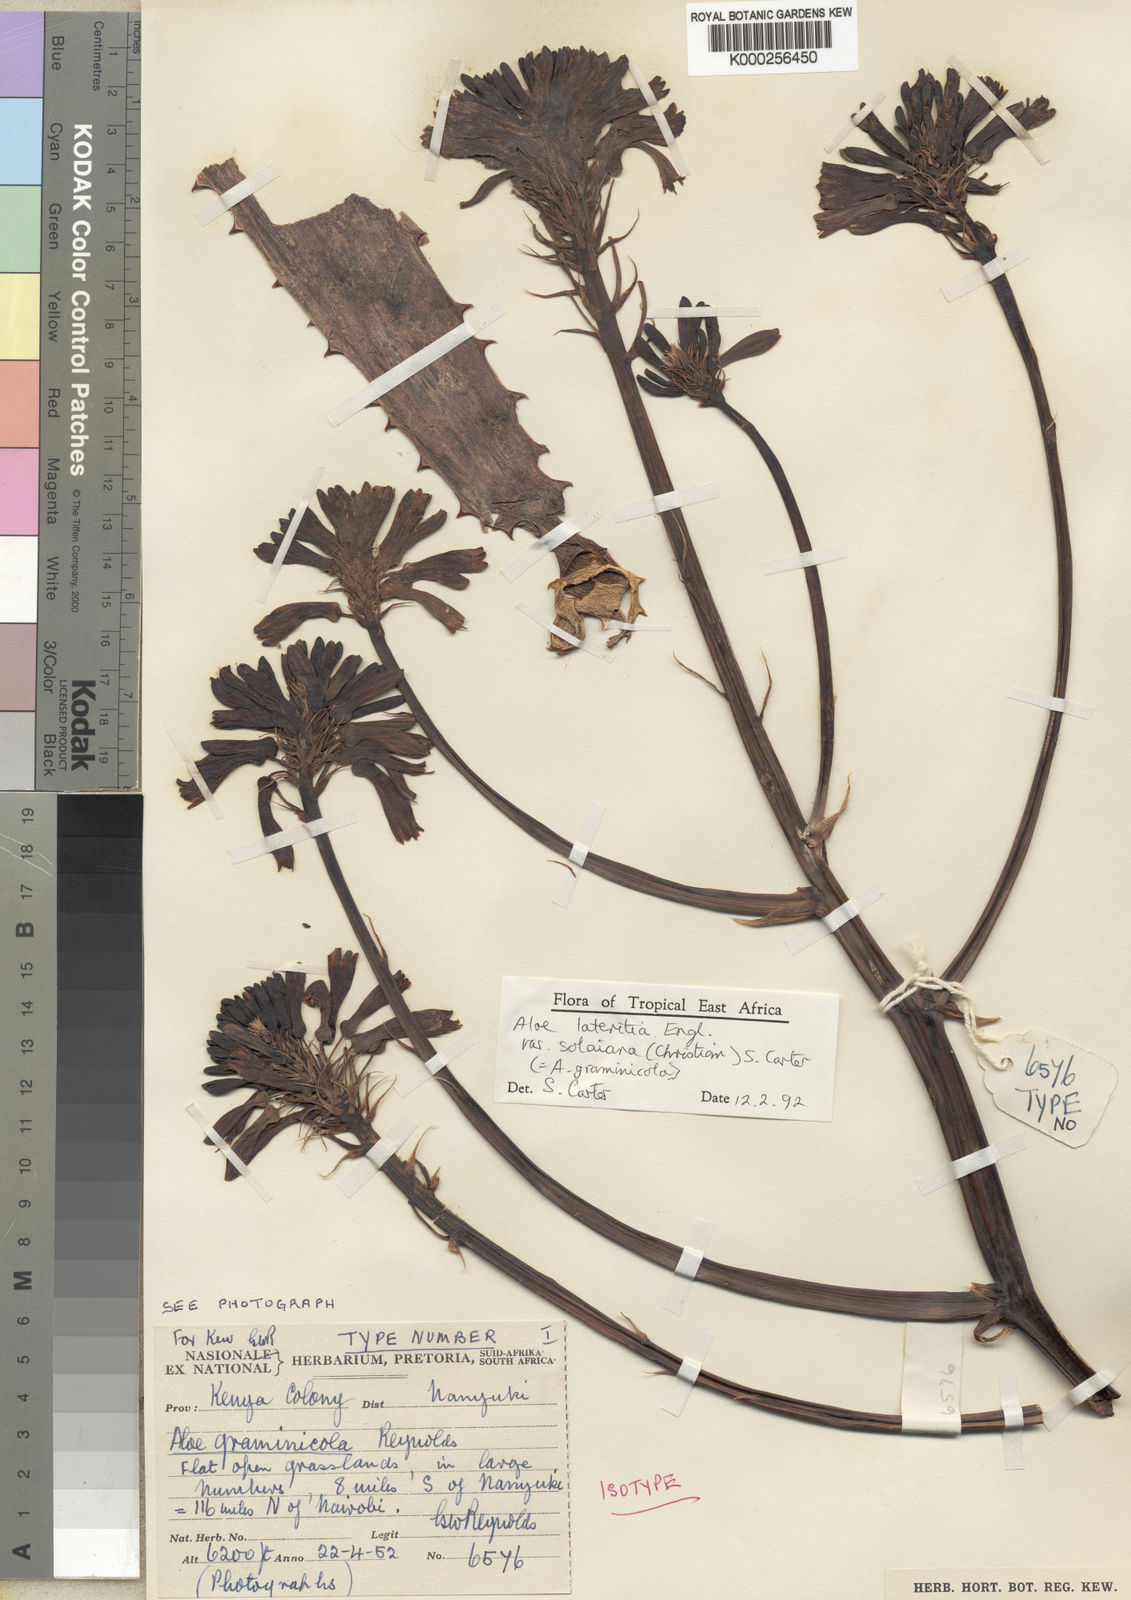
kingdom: Plantae
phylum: Tracheophyta
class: Liliopsida
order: Asparagales
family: Asphodelaceae
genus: Aloe
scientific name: Aloe lateritia
